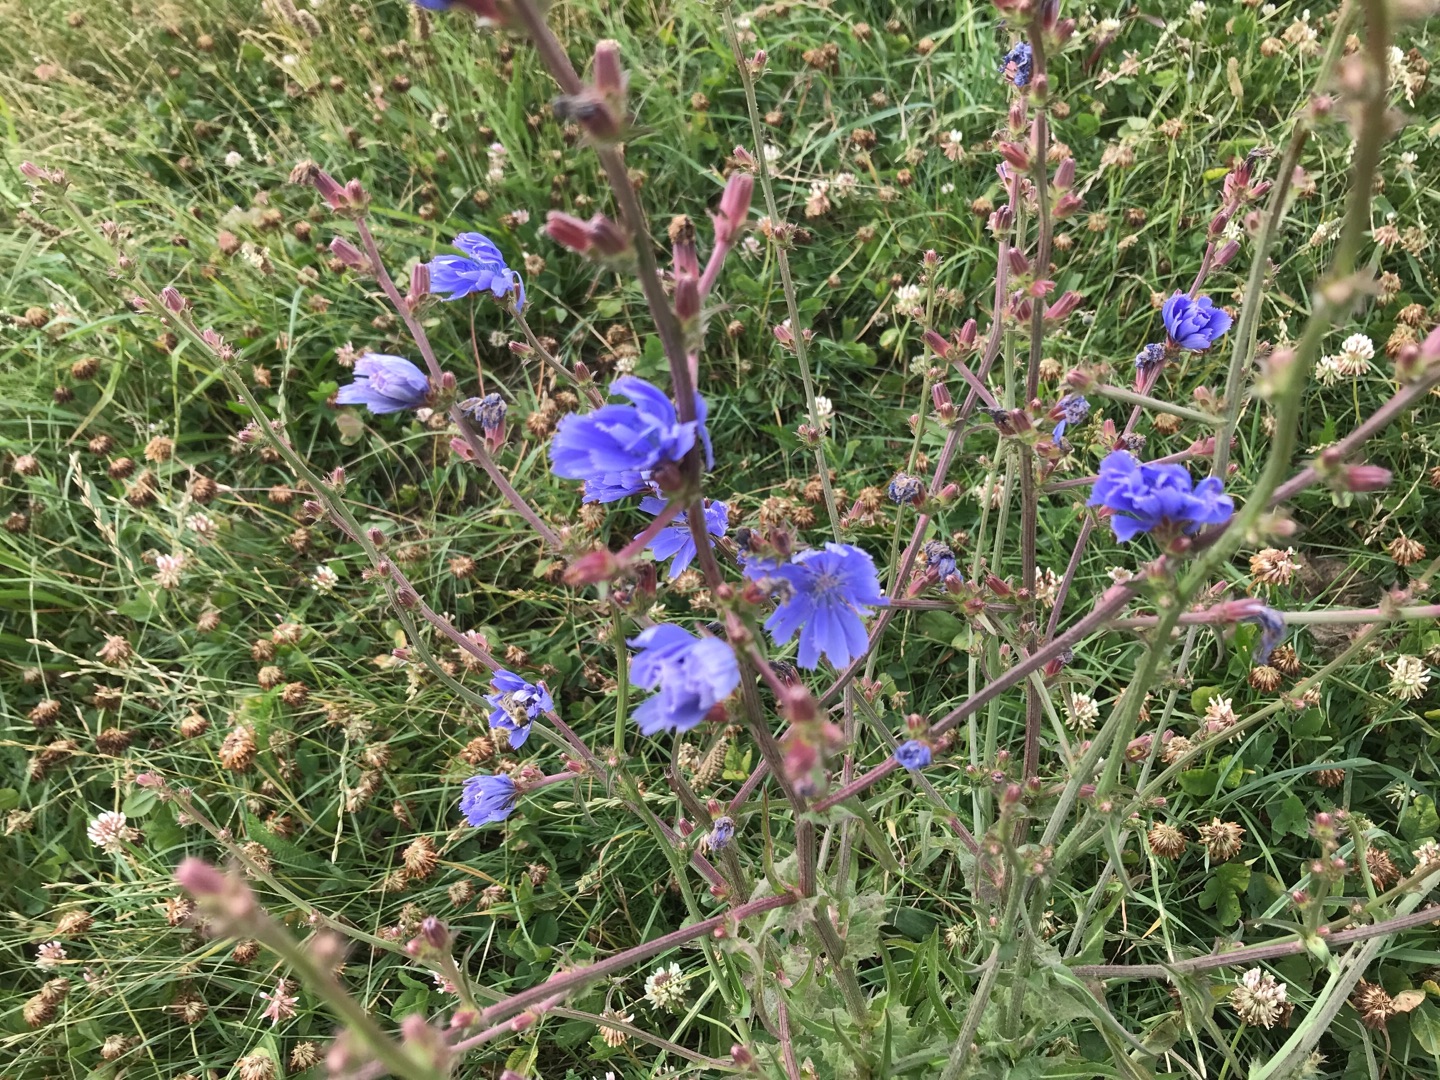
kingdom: Plantae
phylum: Tracheophyta
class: Magnoliopsida
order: Asterales
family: Asteraceae
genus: Cichorium
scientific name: Cichorium intybus
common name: Cikorie
